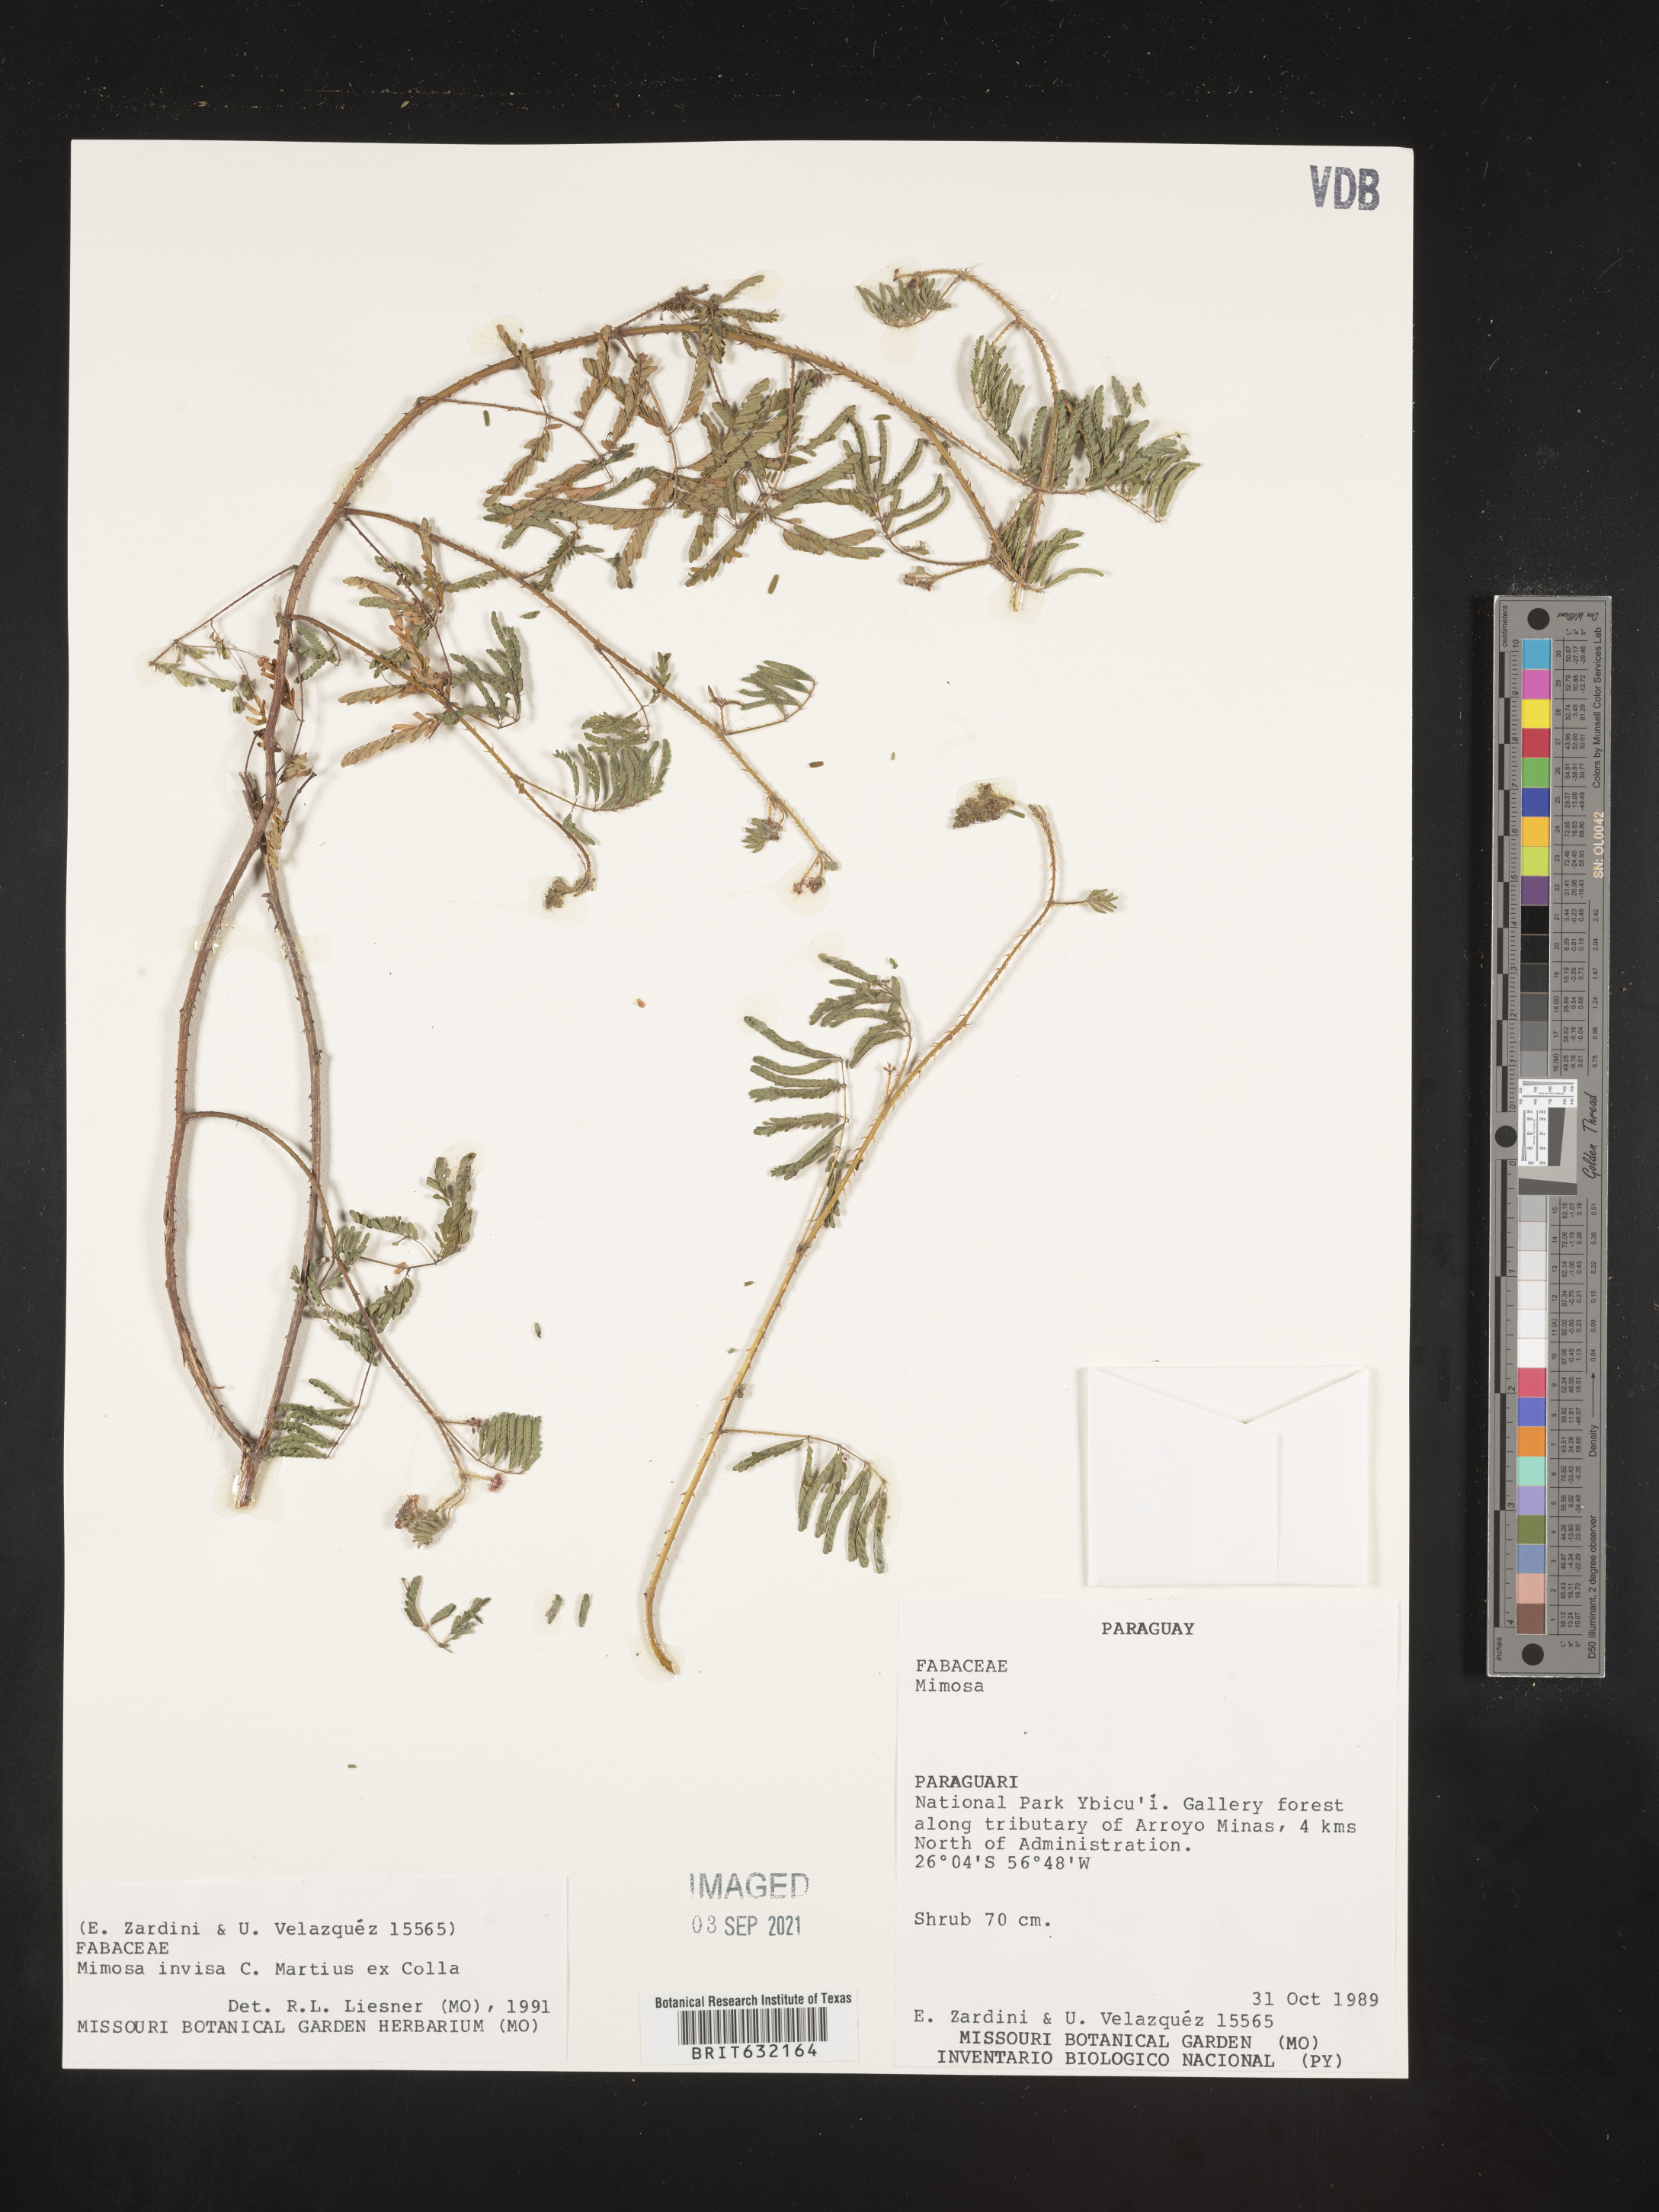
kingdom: Plantae
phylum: Tracheophyta
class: Magnoliopsida
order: Fabales
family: Fabaceae
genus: Mimosa
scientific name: Mimosa
